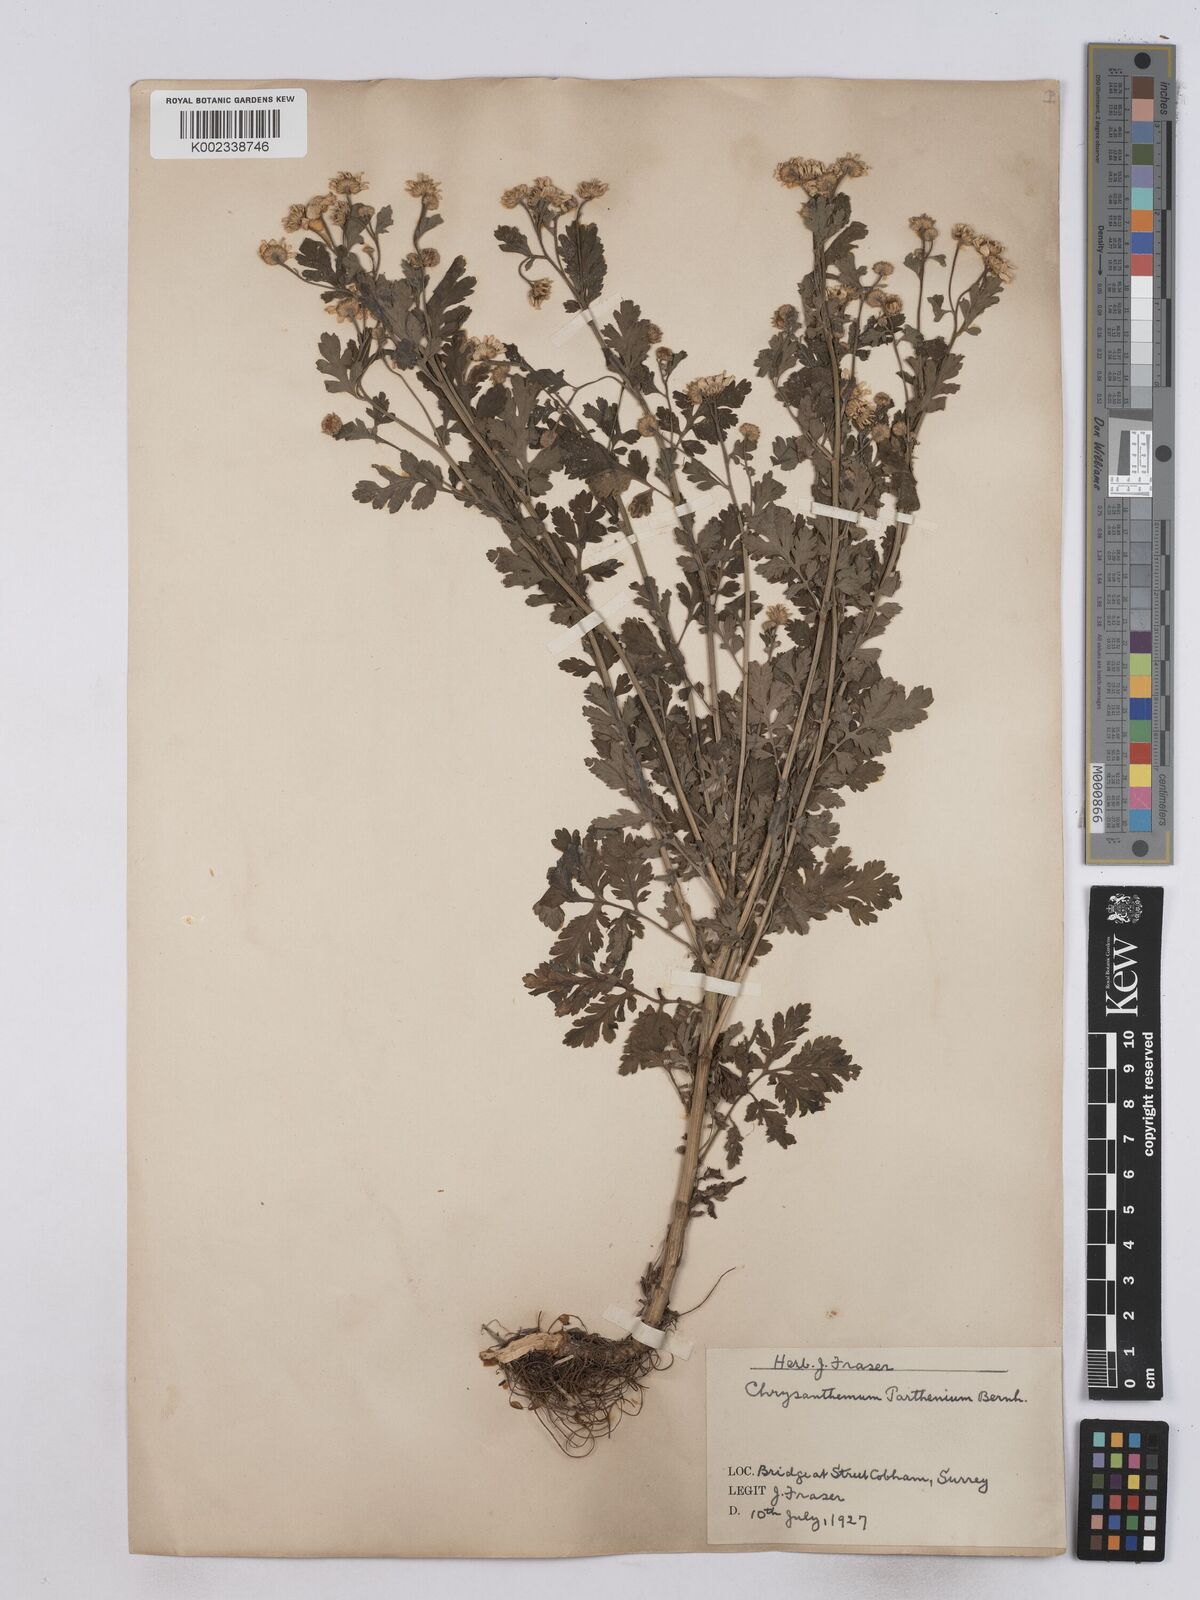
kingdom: Plantae
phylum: Tracheophyta
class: Magnoliopsida
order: Asterales
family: Asteraceae
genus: Tanacetum
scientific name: Tanacetum parthenium
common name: Feverfew
